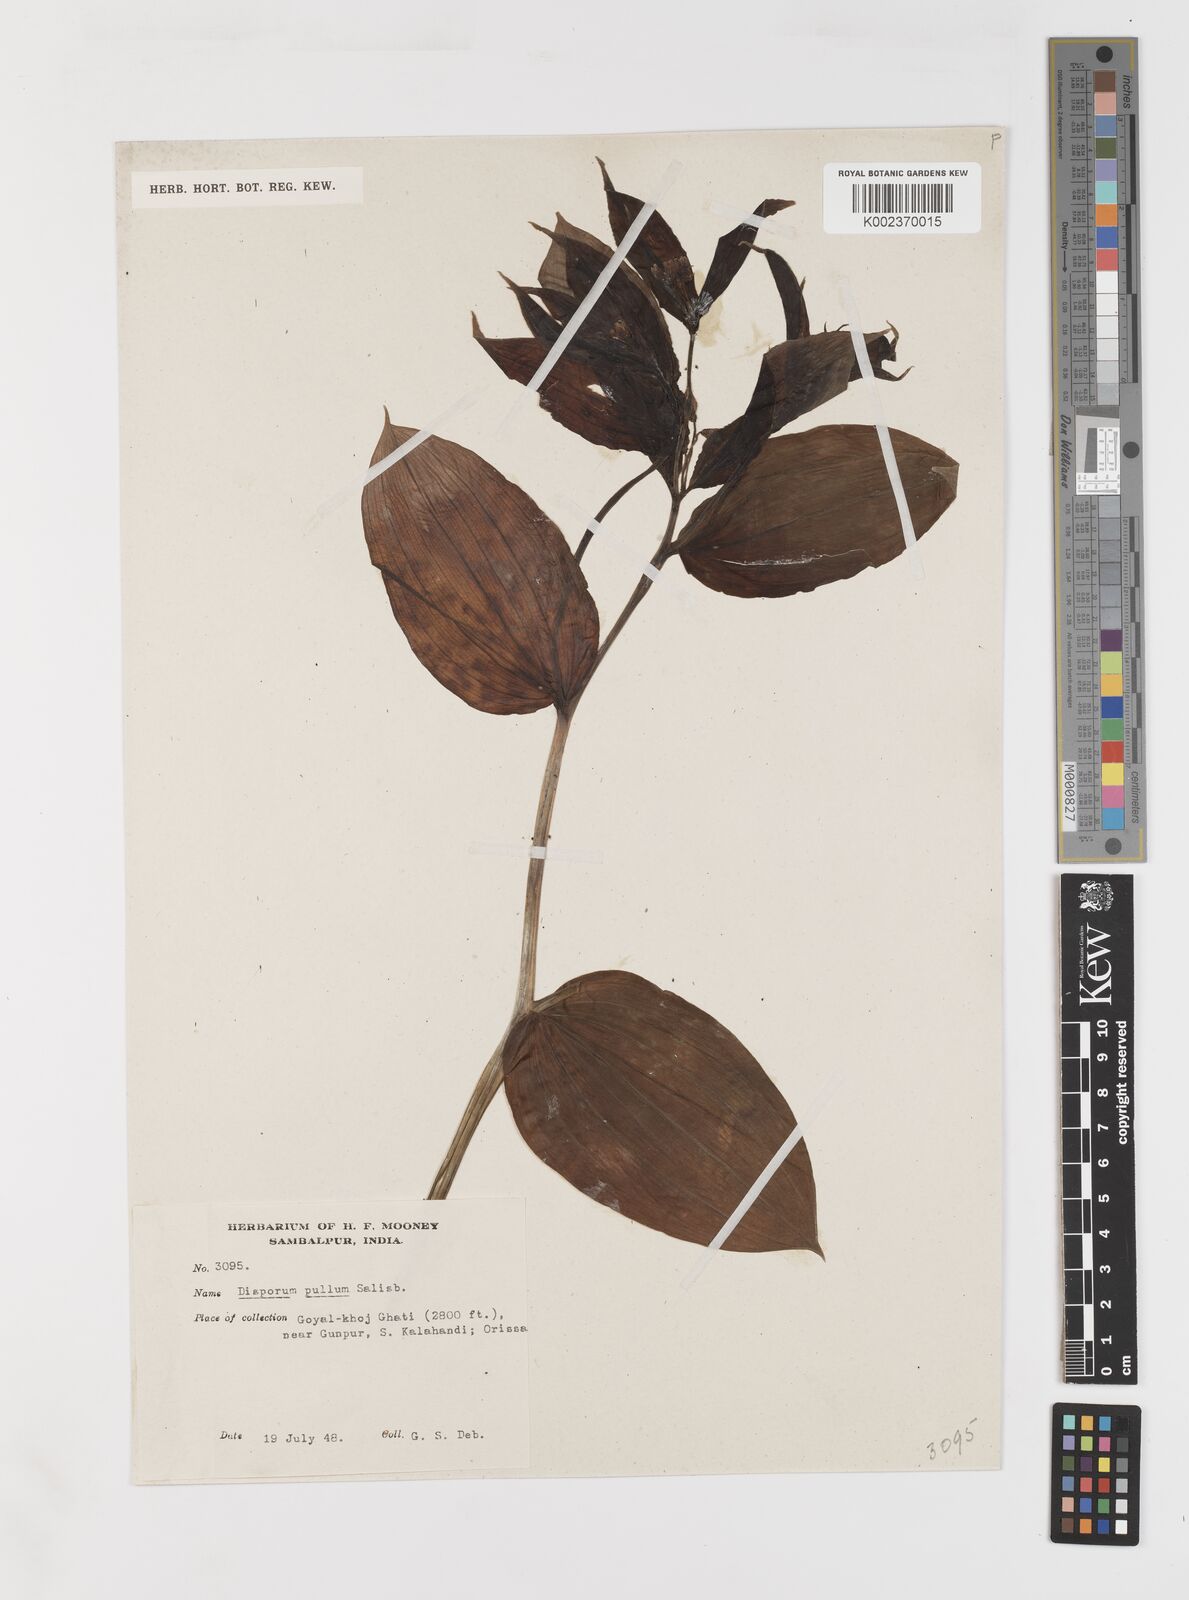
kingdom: Plantae
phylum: Tracheophyta
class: Liliopsida
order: Liliales
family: Colchicaceae
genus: Disporum
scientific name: Disporum cantoniense
